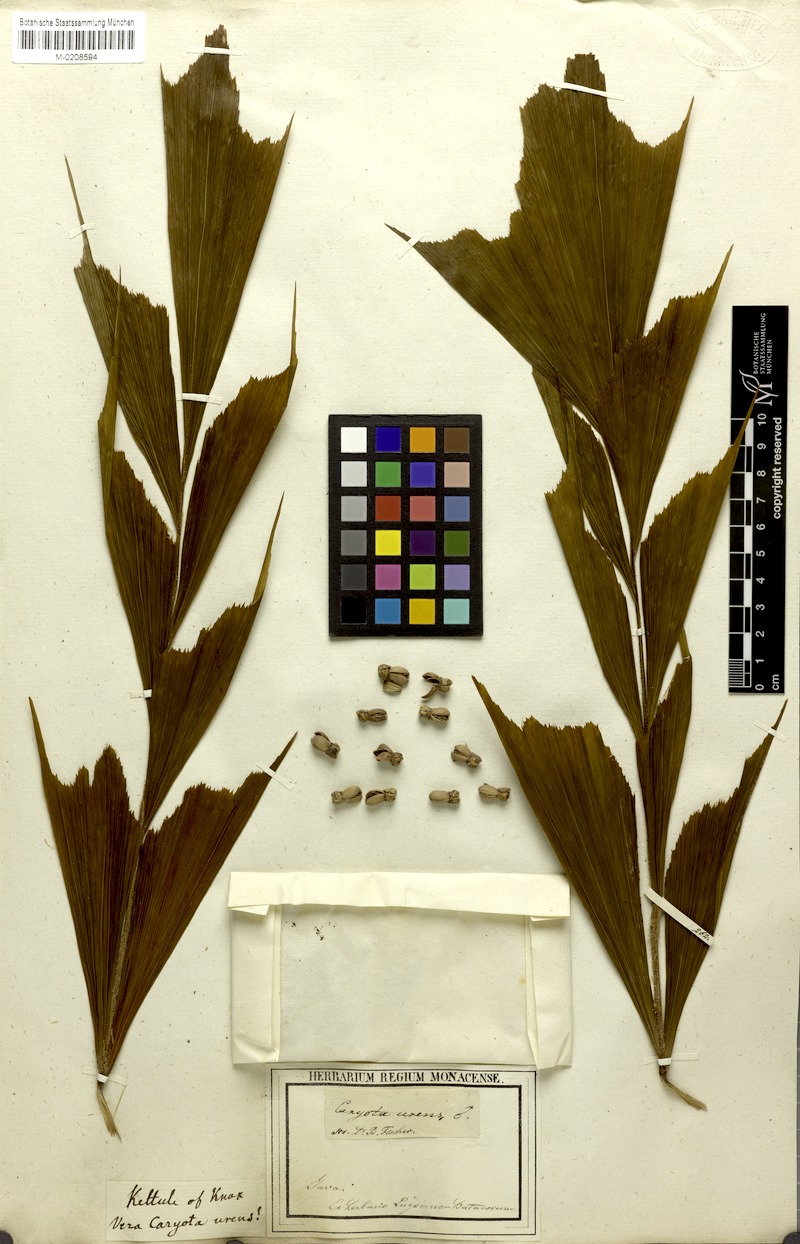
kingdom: Plantae
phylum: Tracheophyta
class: Liliopsida
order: Arecales
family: Arecaceae
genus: Caryota
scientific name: Caryota urens
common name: Jaggery palm
